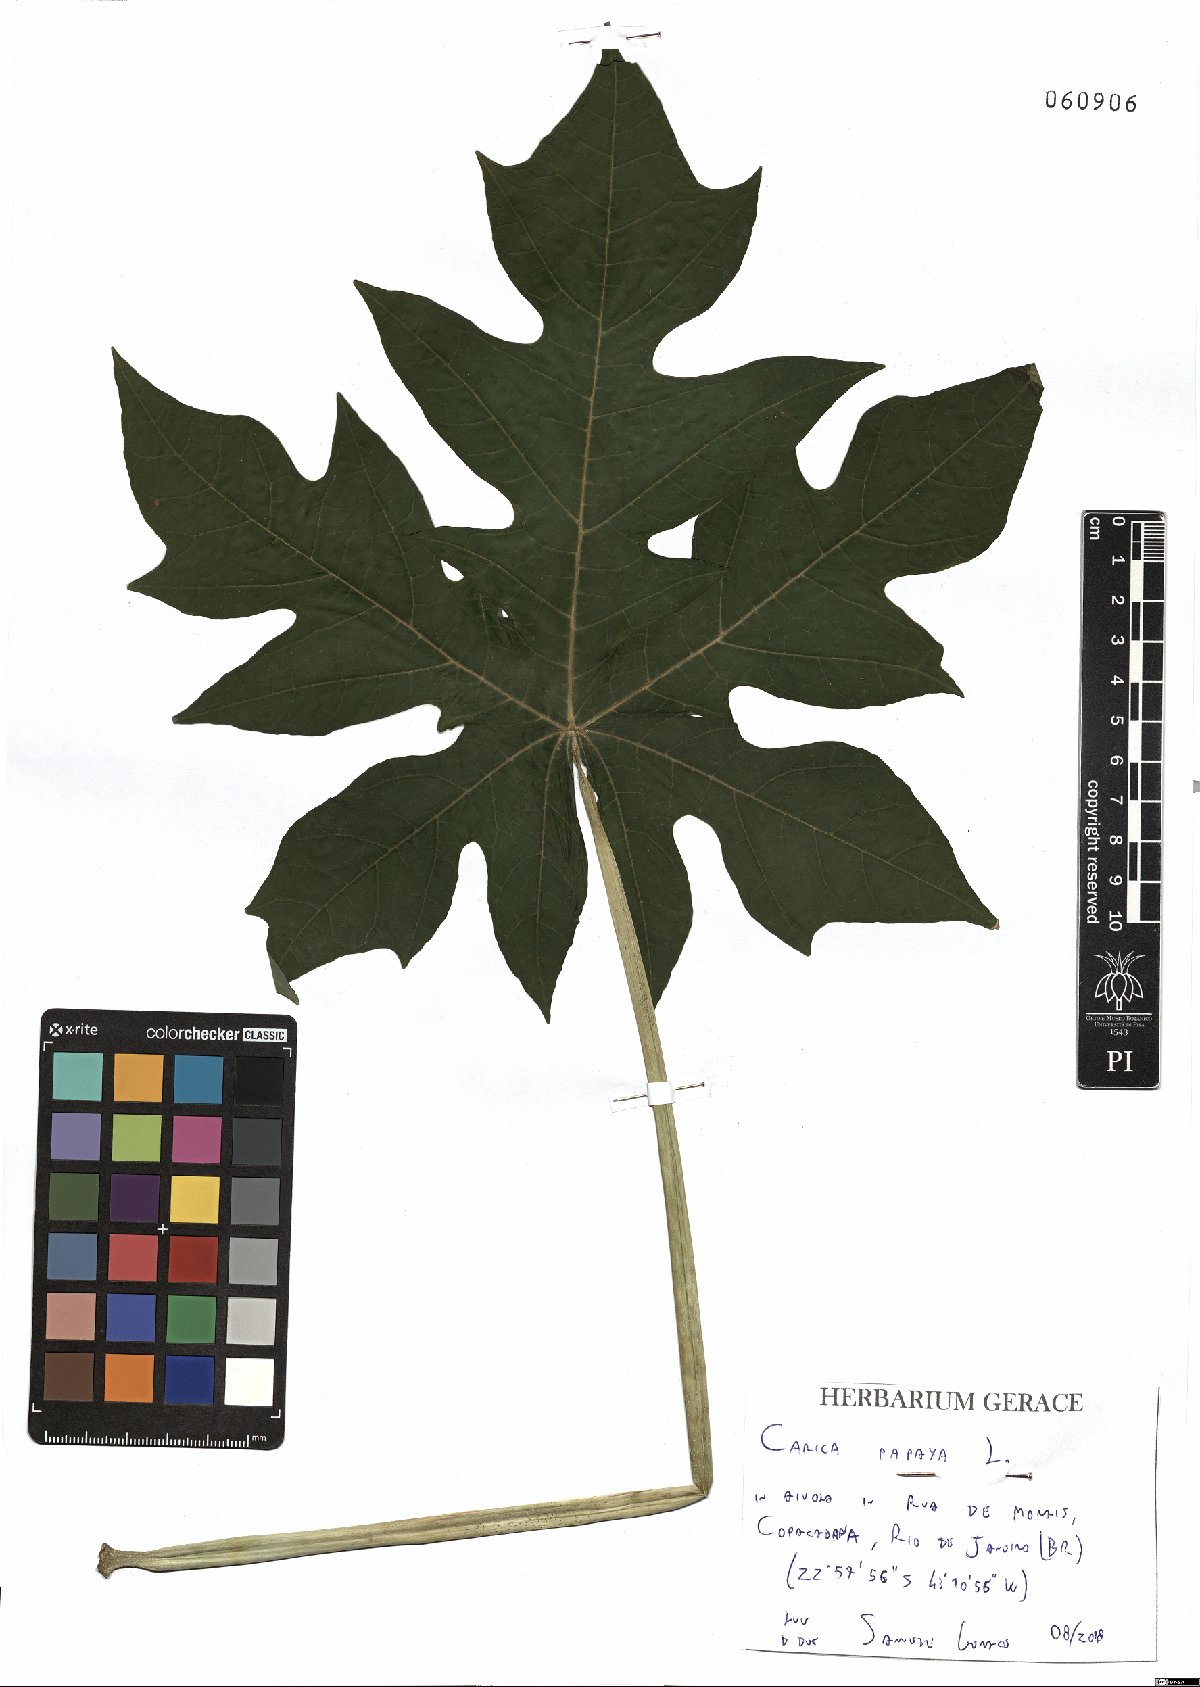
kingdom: Plantae
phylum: Tracheophyta
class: Magnoliopsida
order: Brassicales
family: Caricaceae
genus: Carica
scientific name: Carica papaya
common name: Papaya
